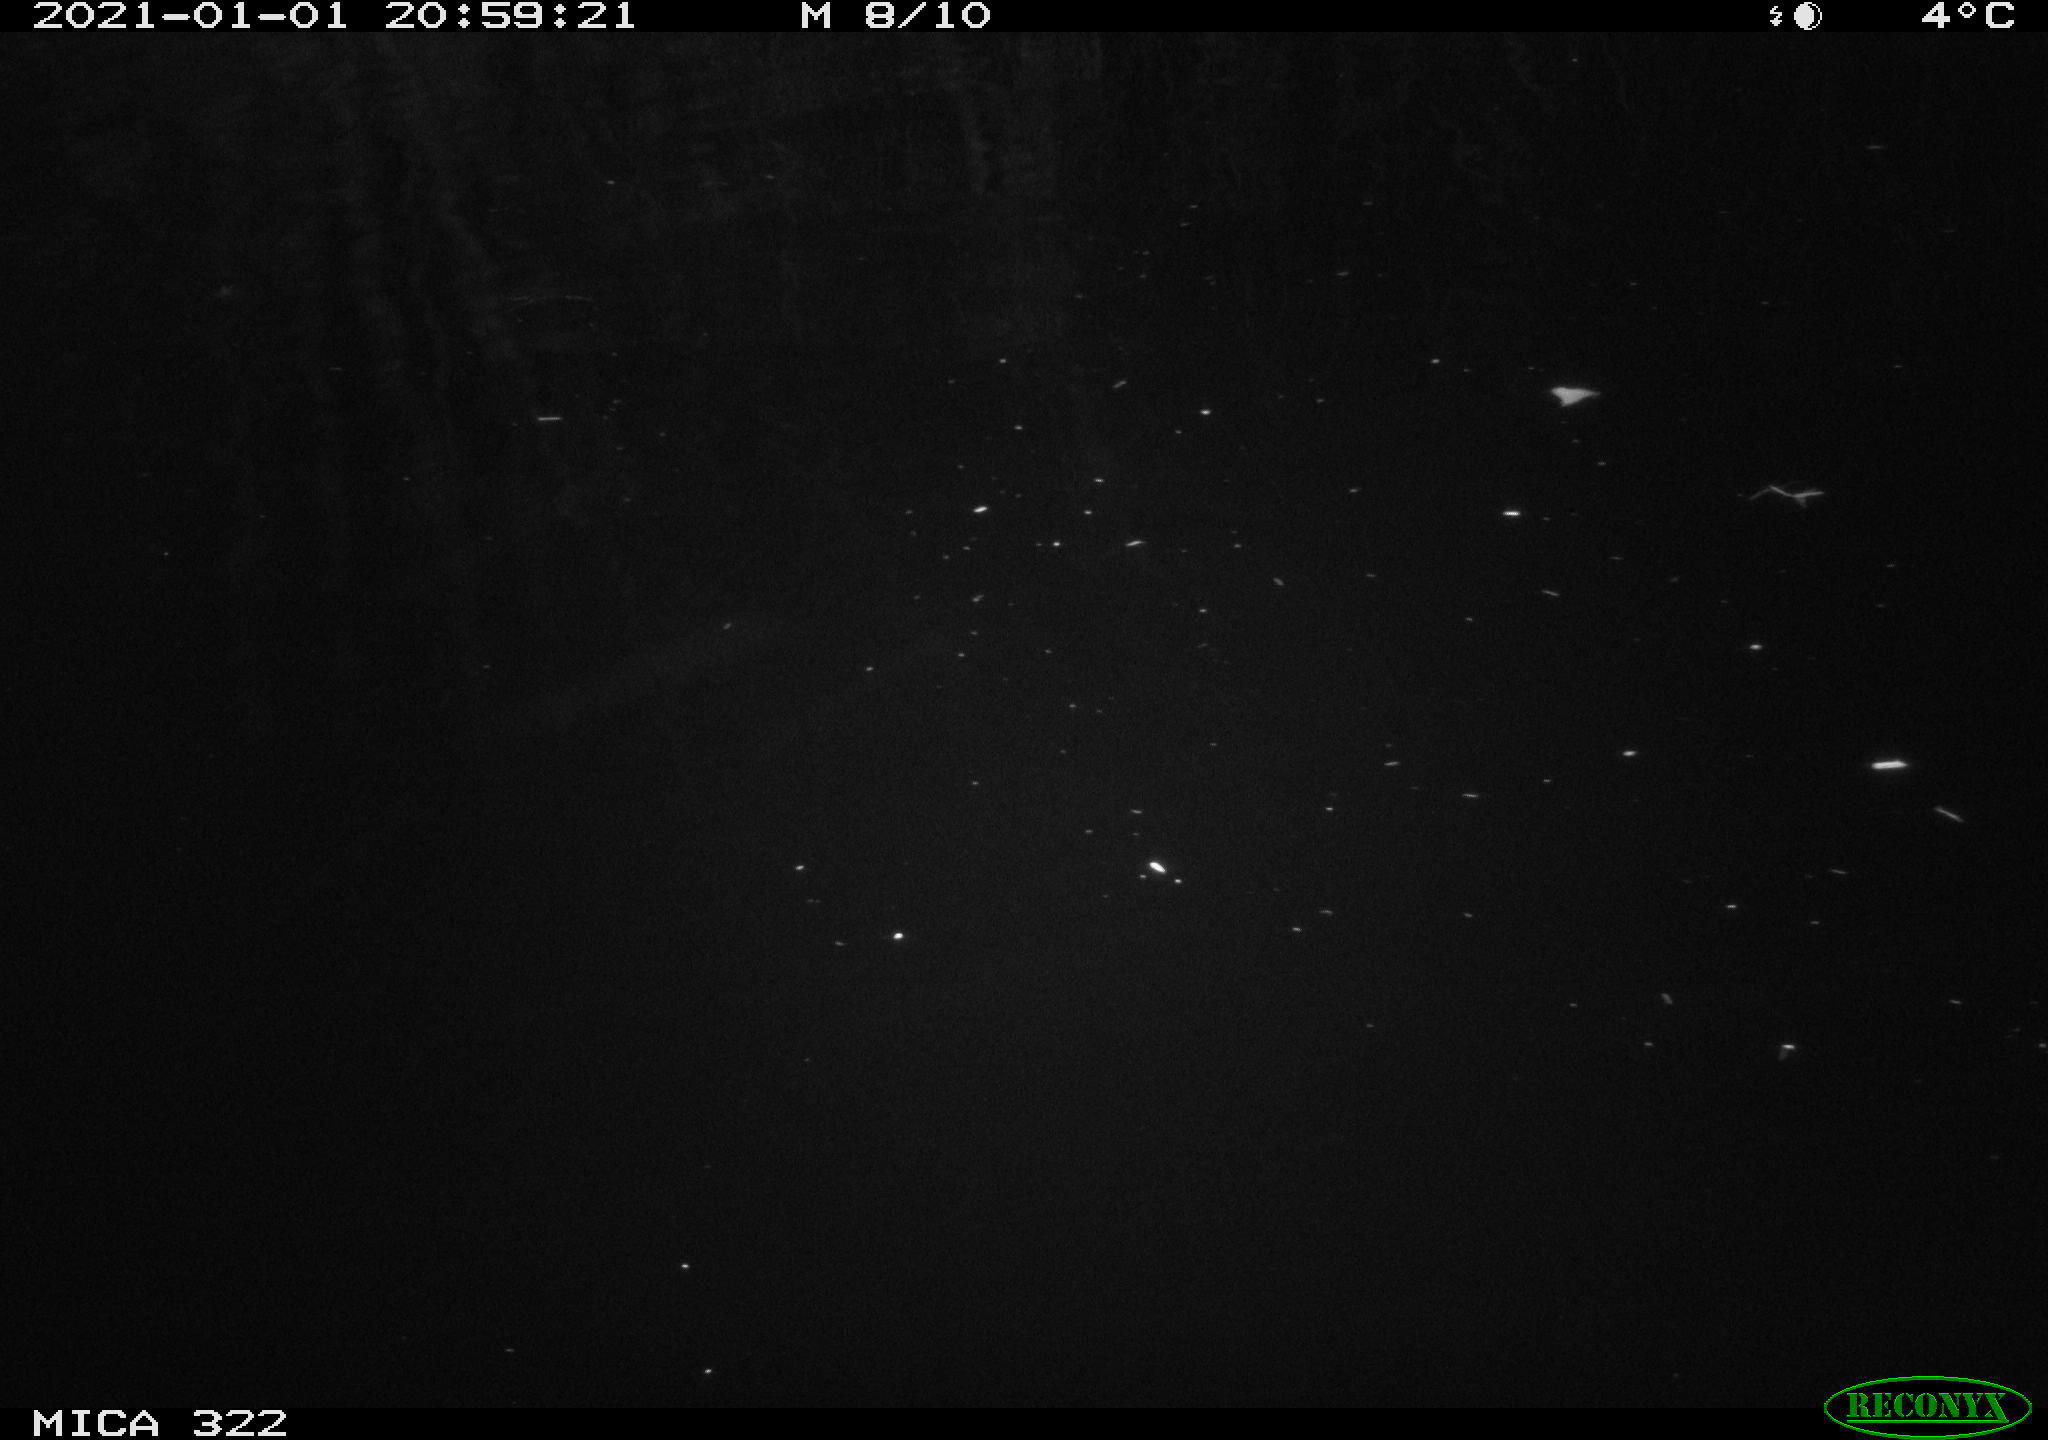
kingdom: Animalia
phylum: Chordata
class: Mammalia
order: Rodentia
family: Muridae
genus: Rattus
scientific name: Rattus norvegicus
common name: Brown rat
